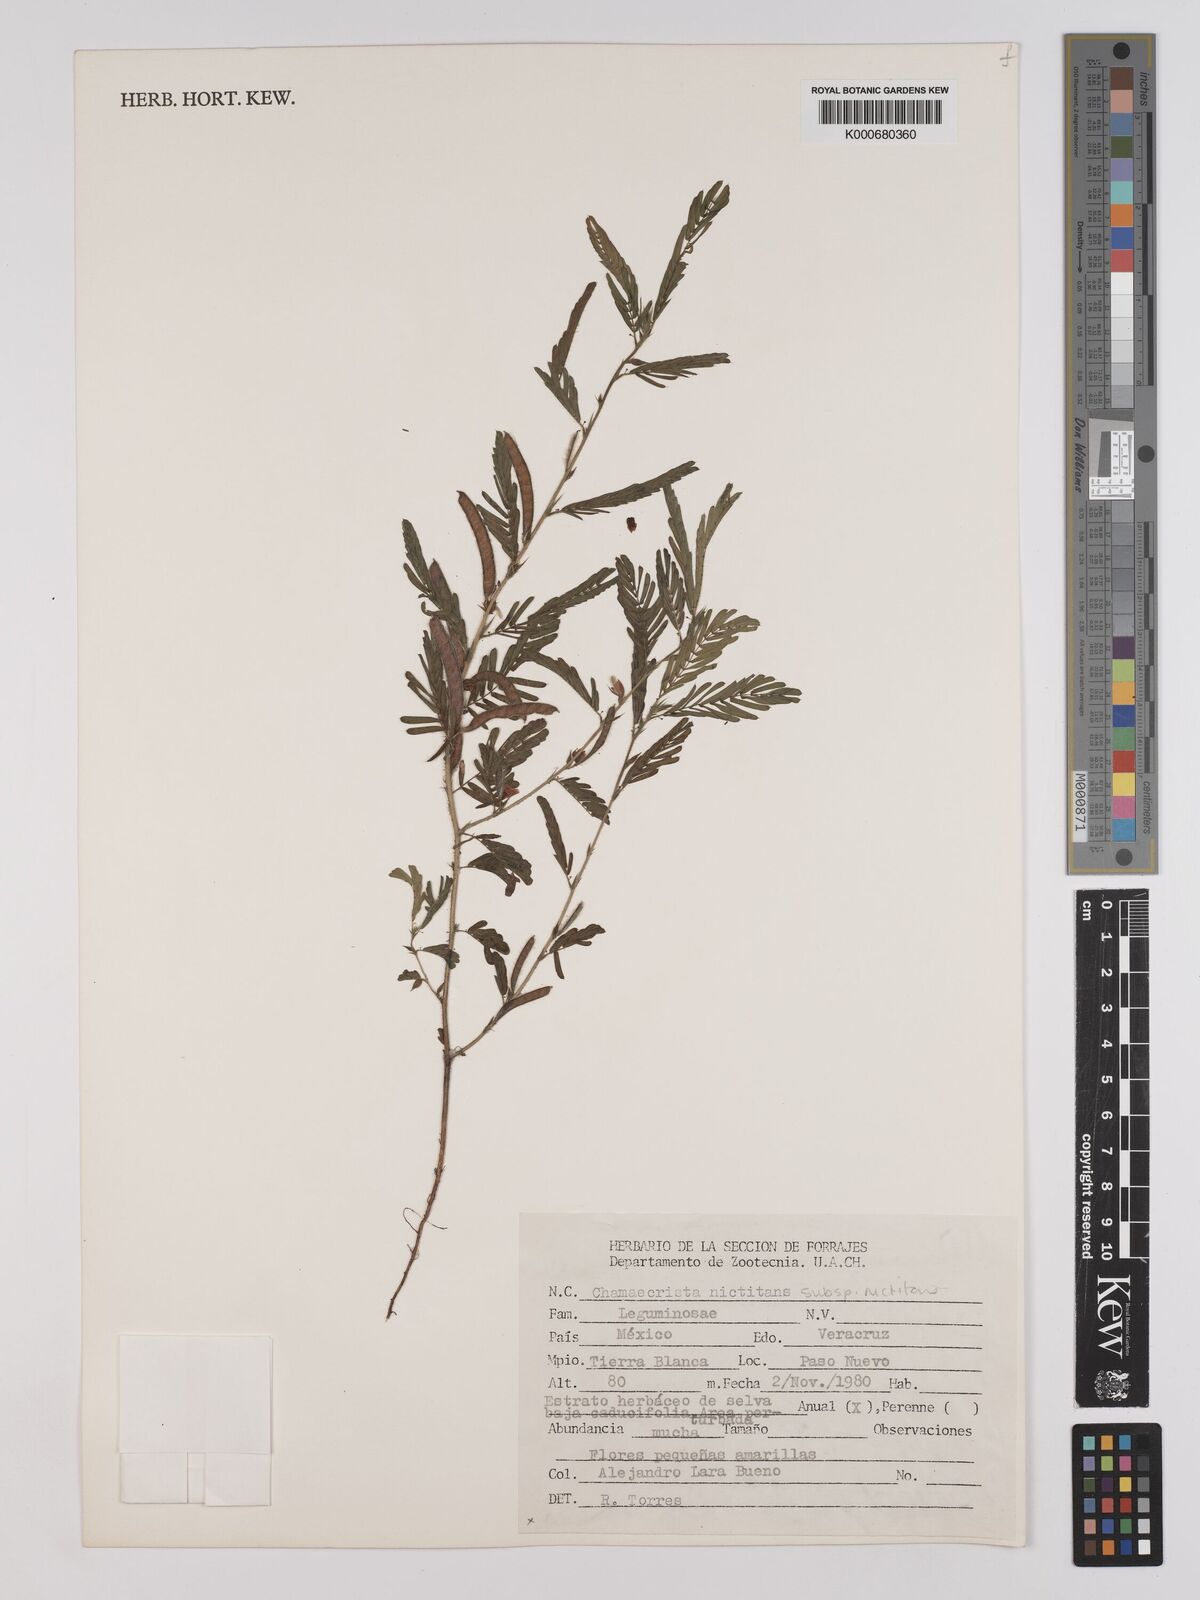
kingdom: Plantae
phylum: Tracheophyta
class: Magnoliopsida
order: Fabales
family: Fabaceae
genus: Chamaecrista
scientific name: Chamaecrista nictitans
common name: Sensitive cassia
